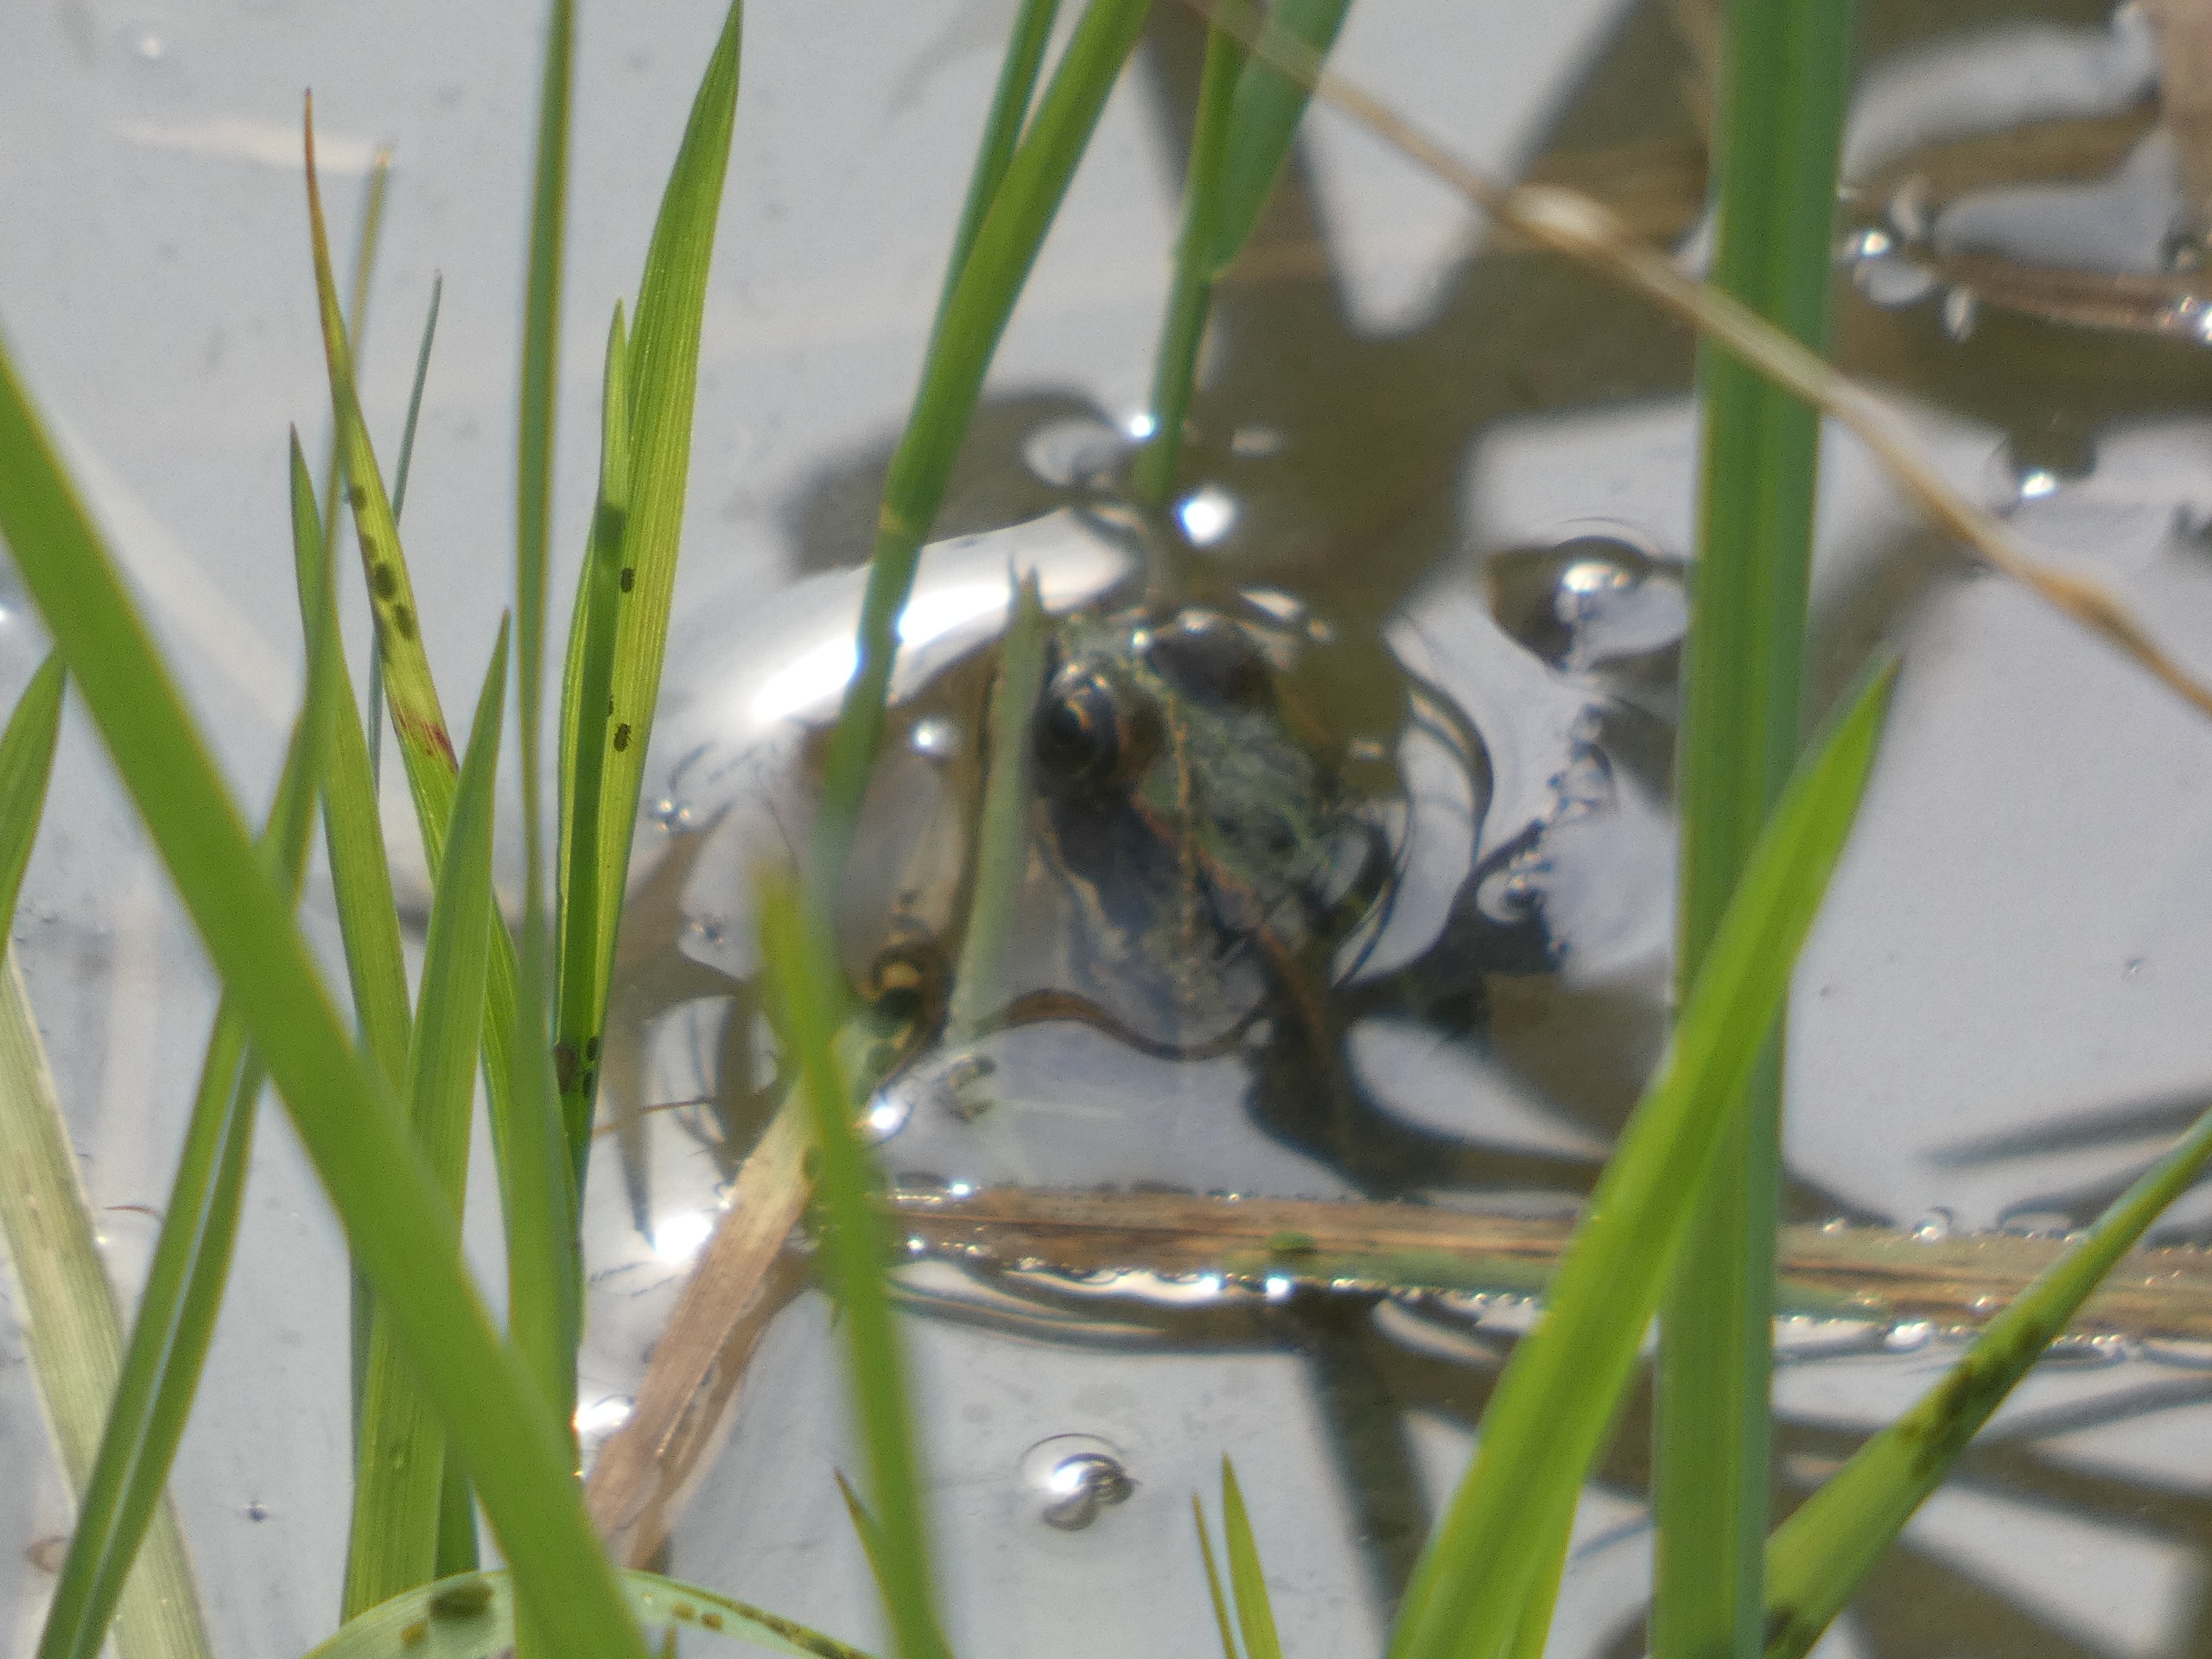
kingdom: Animalia
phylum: Chordata
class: Amphibia
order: Anura
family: Ranidae
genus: Pelophylax
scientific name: Pelophylax lessonae
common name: Grøn frø
